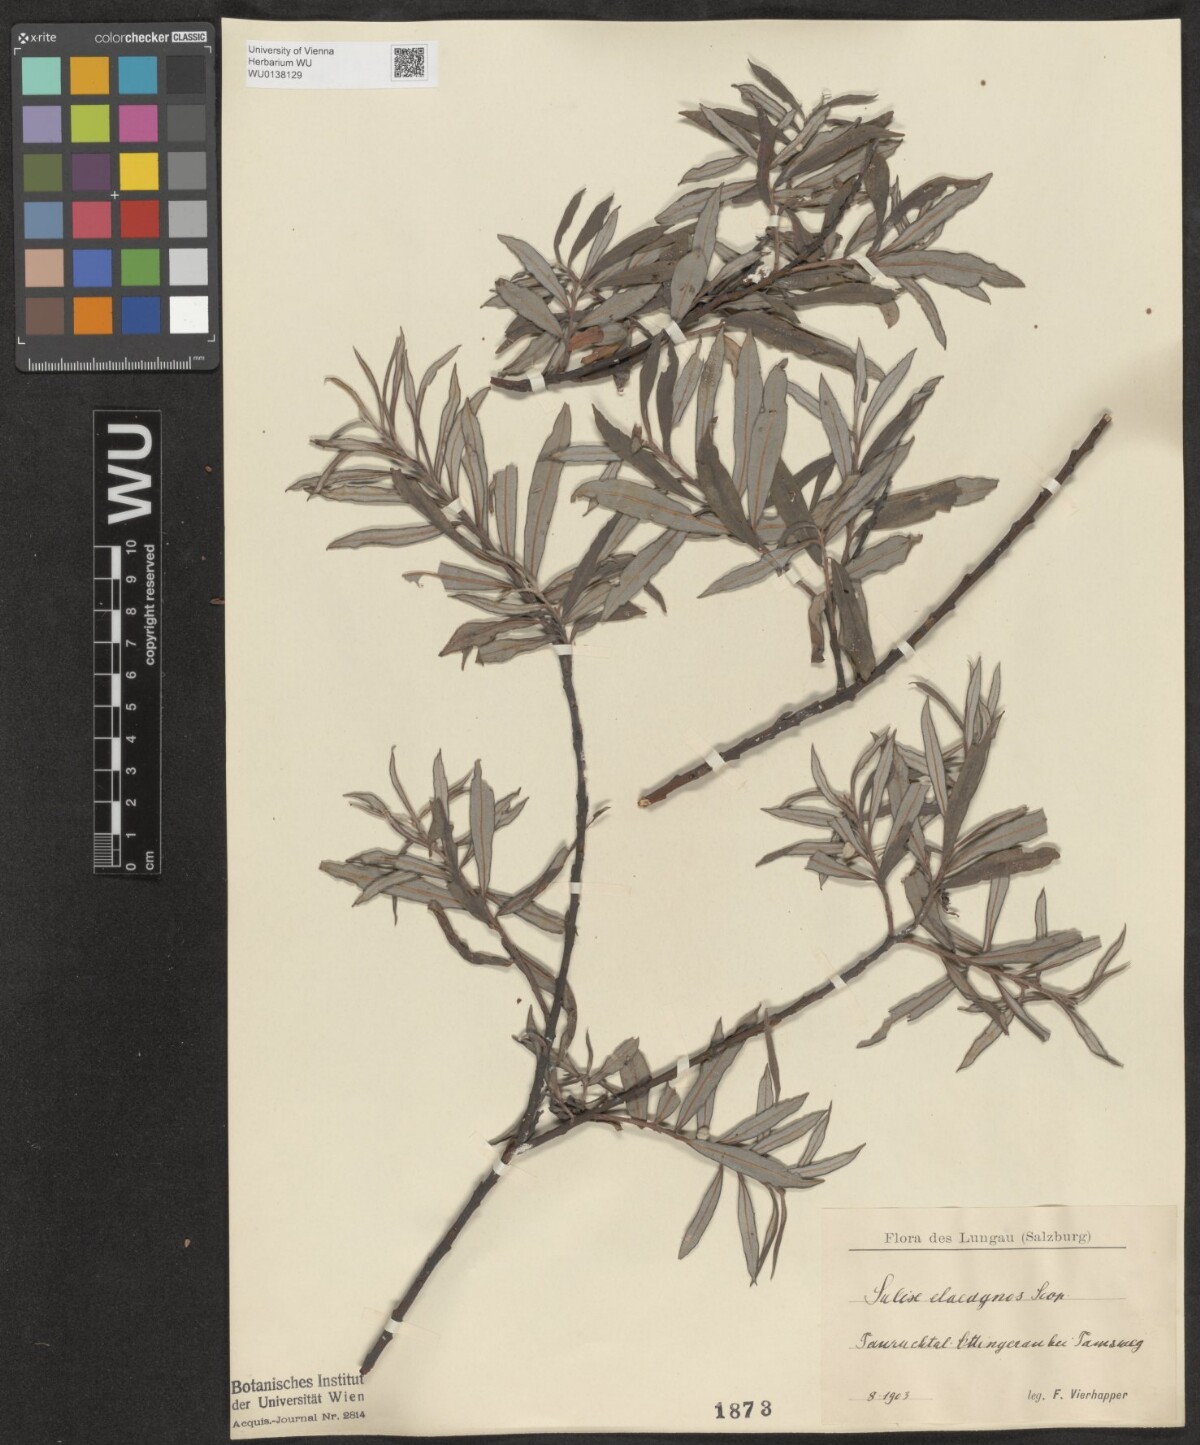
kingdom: Plantae
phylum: Tracheophyta
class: Magnoliopsida
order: Malpighiales
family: Salicaceae
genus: Salix
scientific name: Salix eleagnos
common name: Elaeagnus willow
